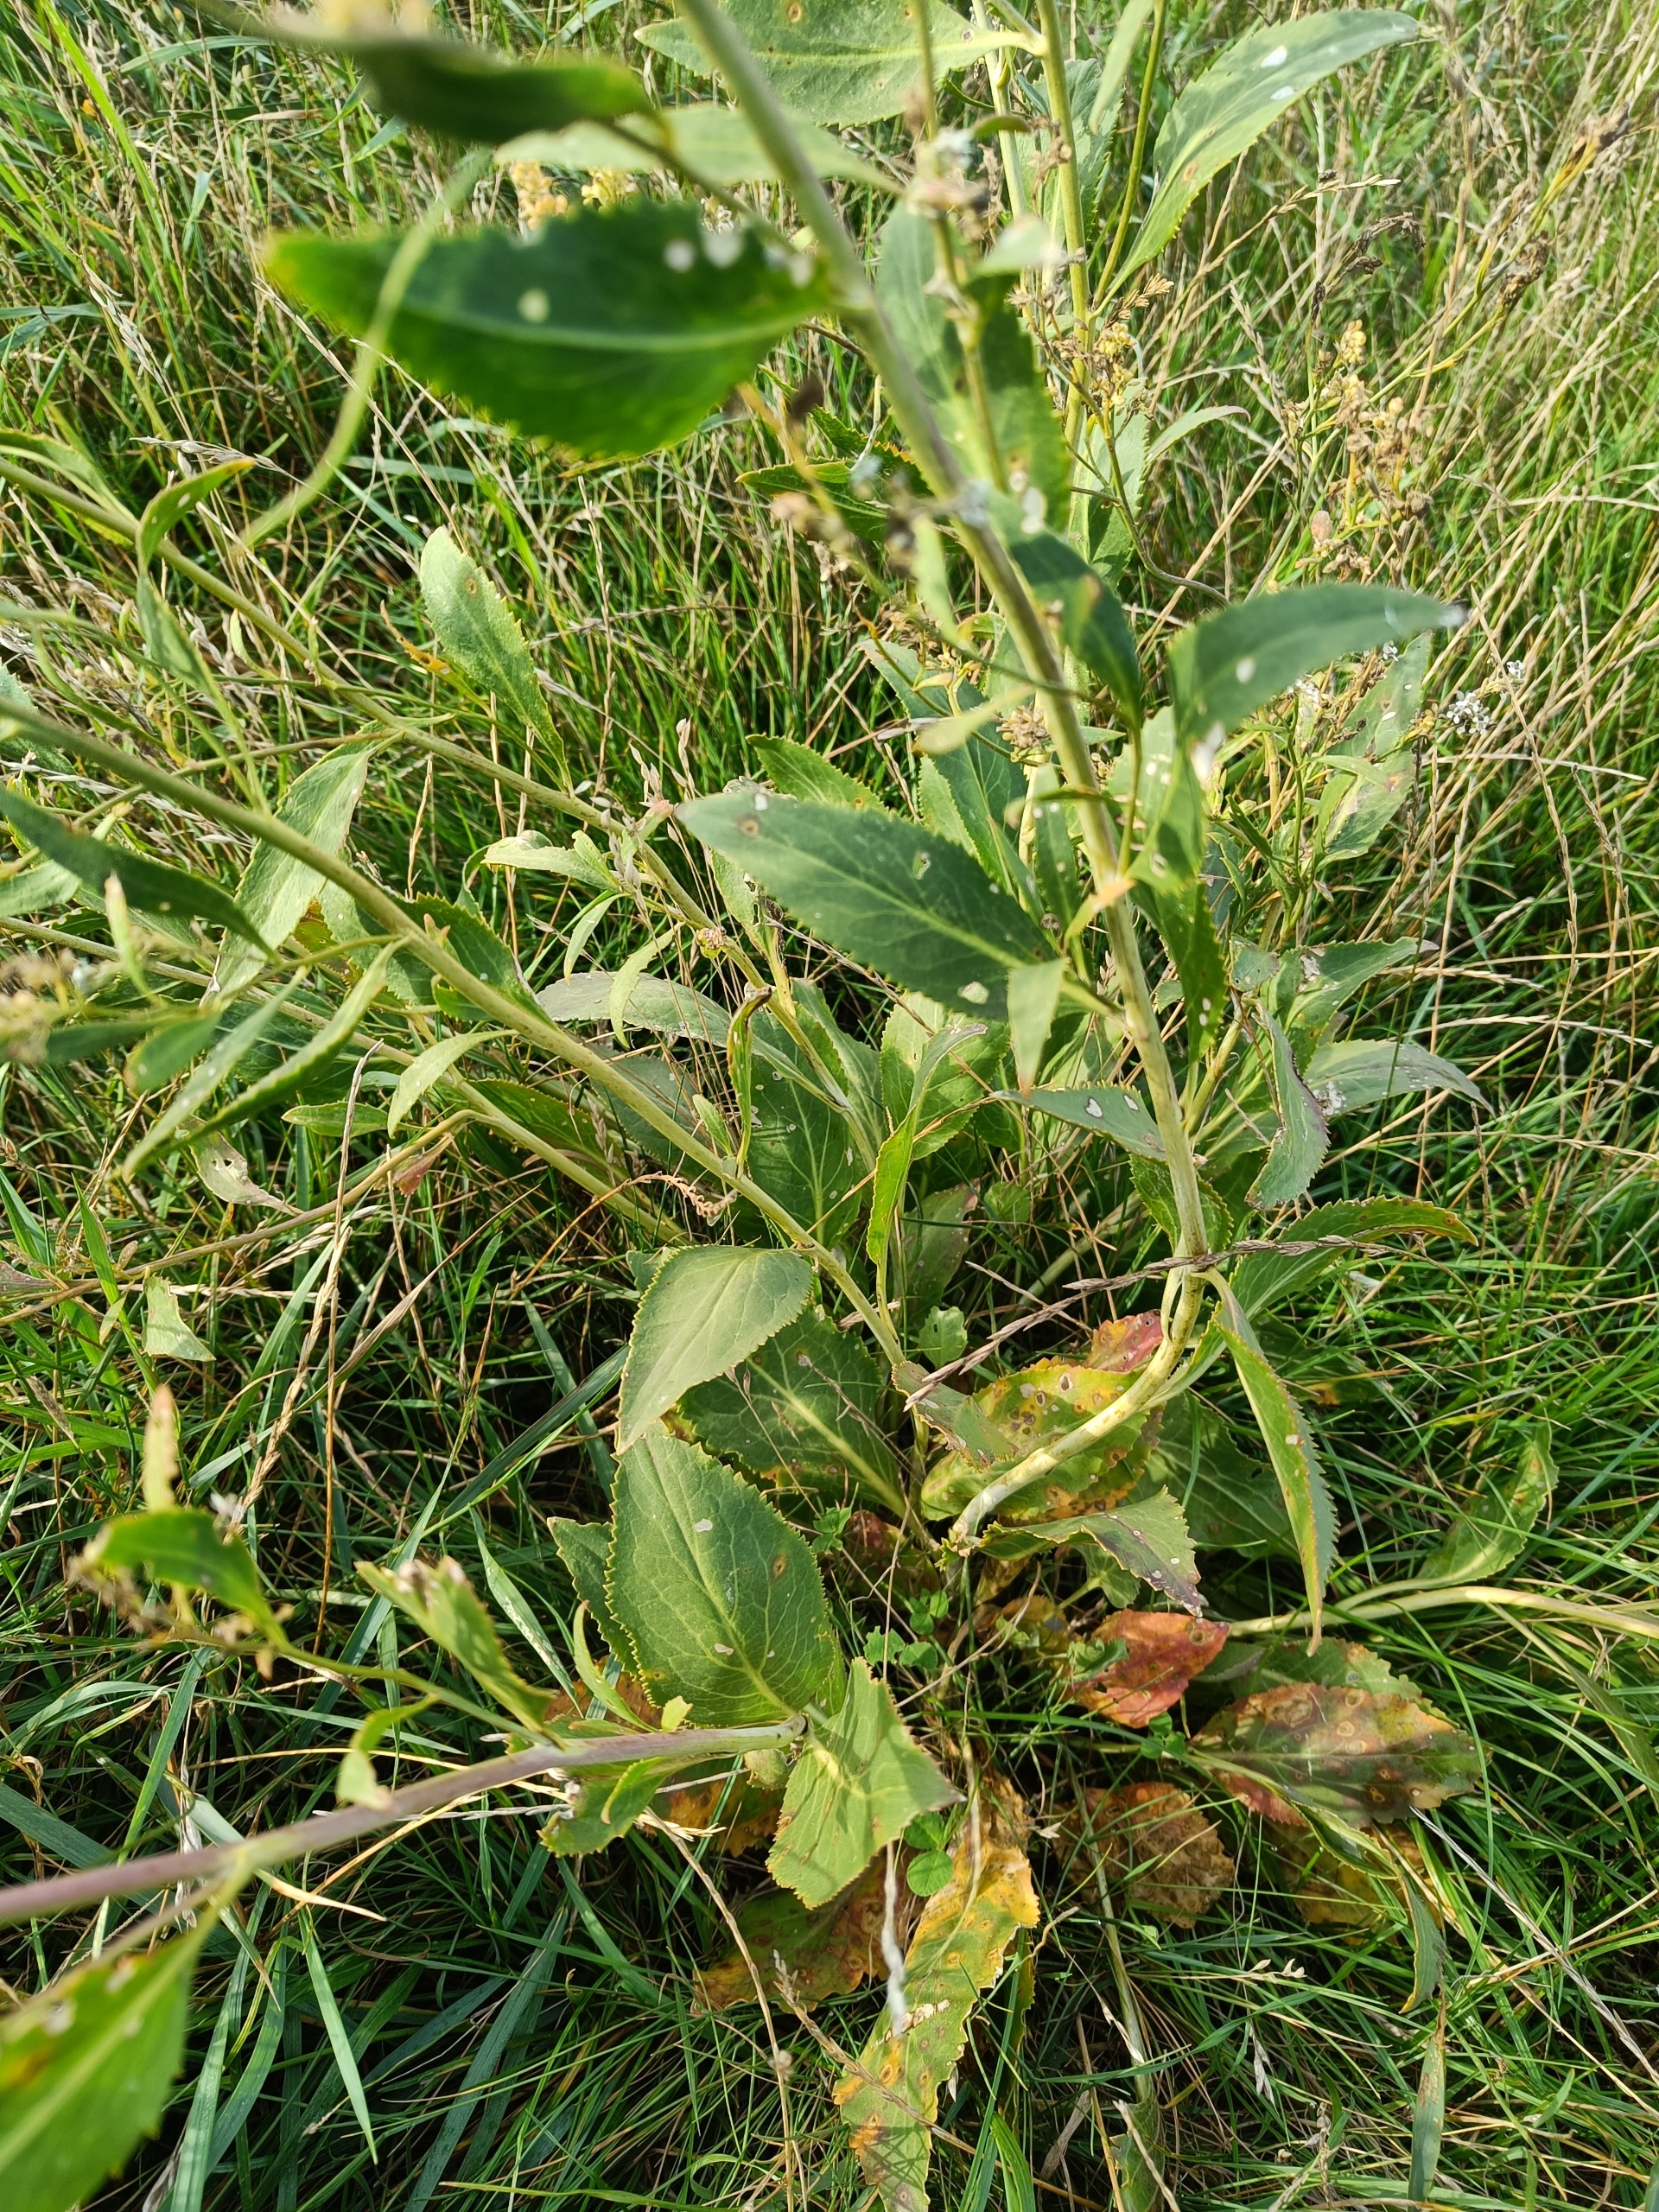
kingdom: Plantae
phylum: Tracheophyta
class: Magnoliopsida
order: Brassicales
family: Brassicaceae
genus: Lepidium
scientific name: Lepidium latifolium
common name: Strand-karse
